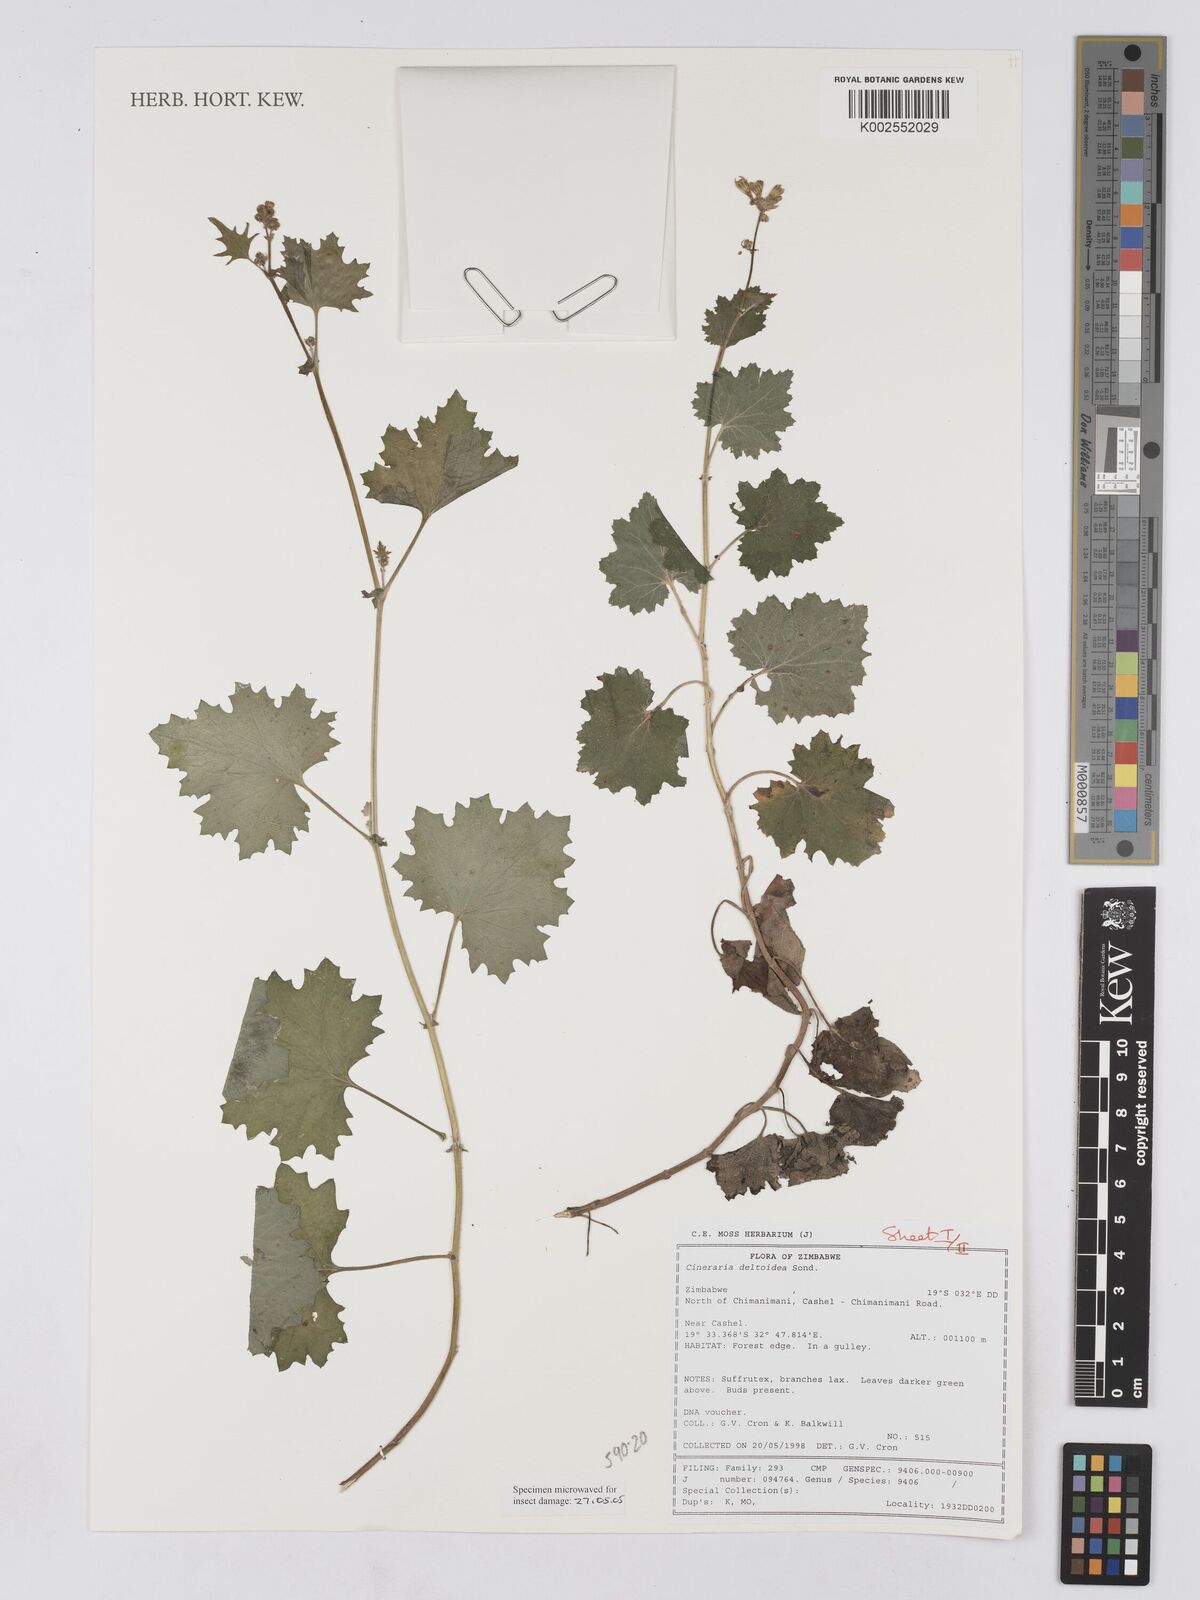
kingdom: Plantae
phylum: Tracheophyta
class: Magnoliopsida
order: Asterales
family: Asteraceae
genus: Cineraria
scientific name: Cineraria deltoidea
